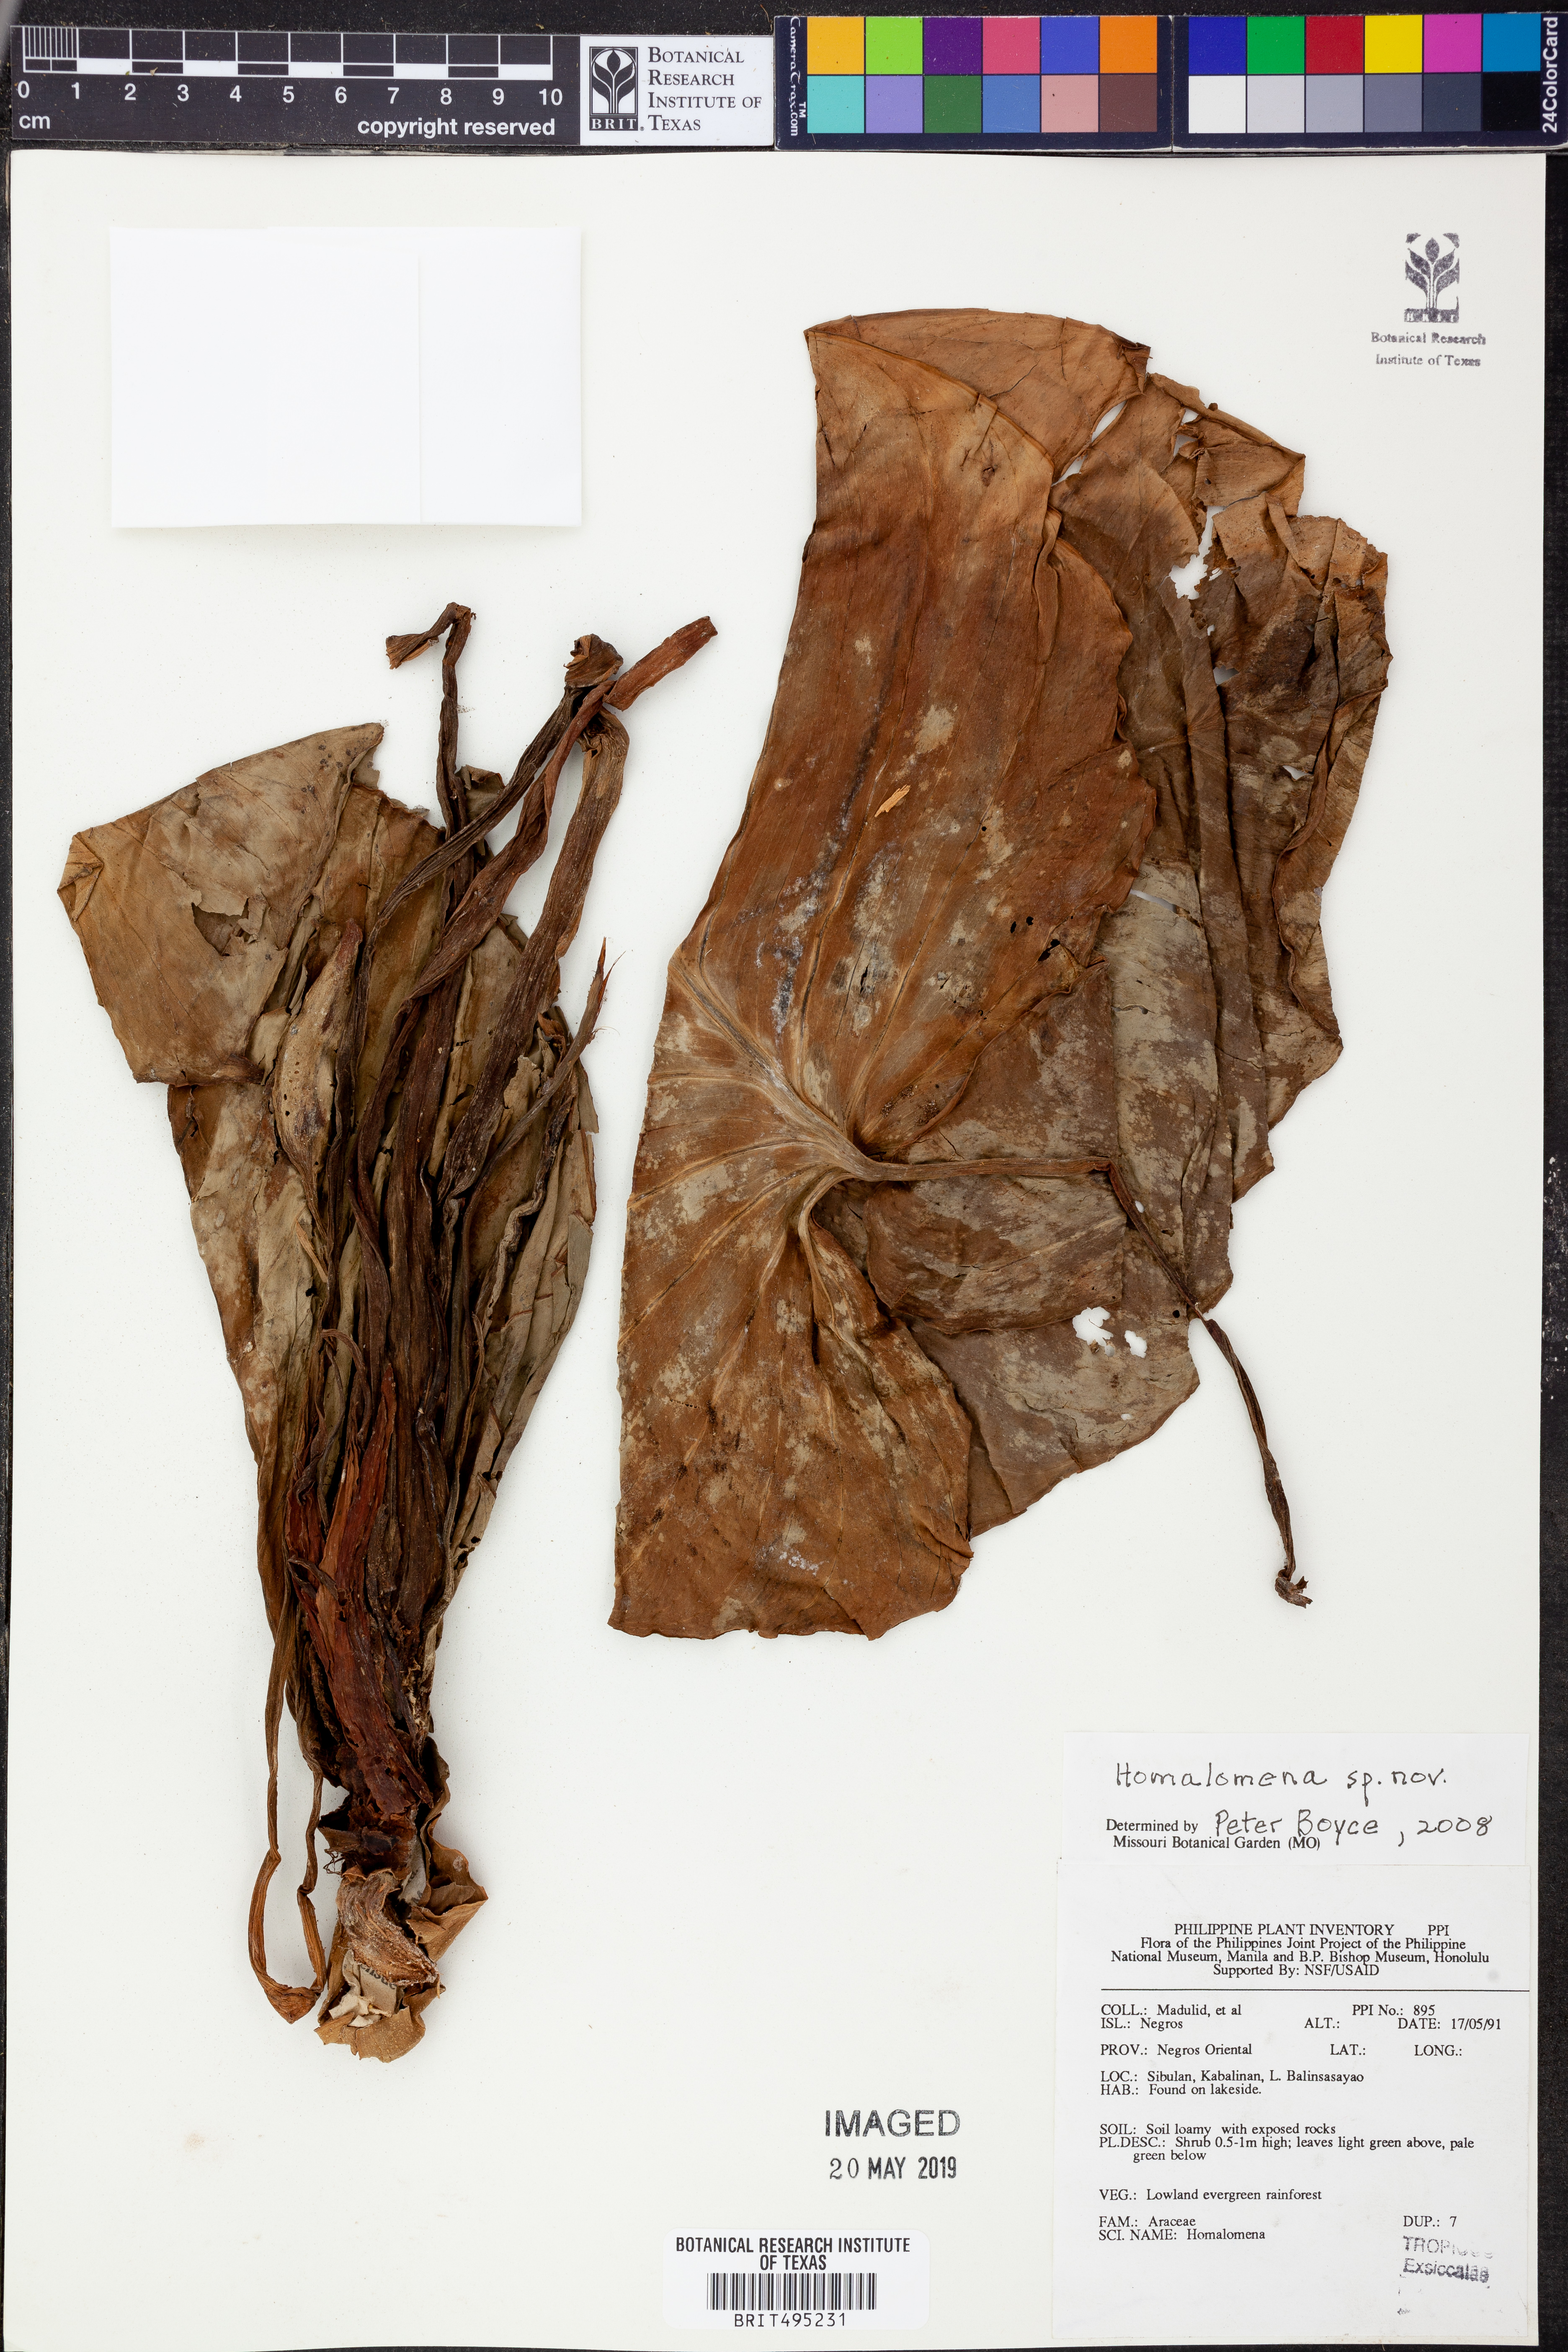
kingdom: Plantae
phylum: Tracheophyta
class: Liliopsida
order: Alismatales
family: Araceae
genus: Homalomena
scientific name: Homalomena
